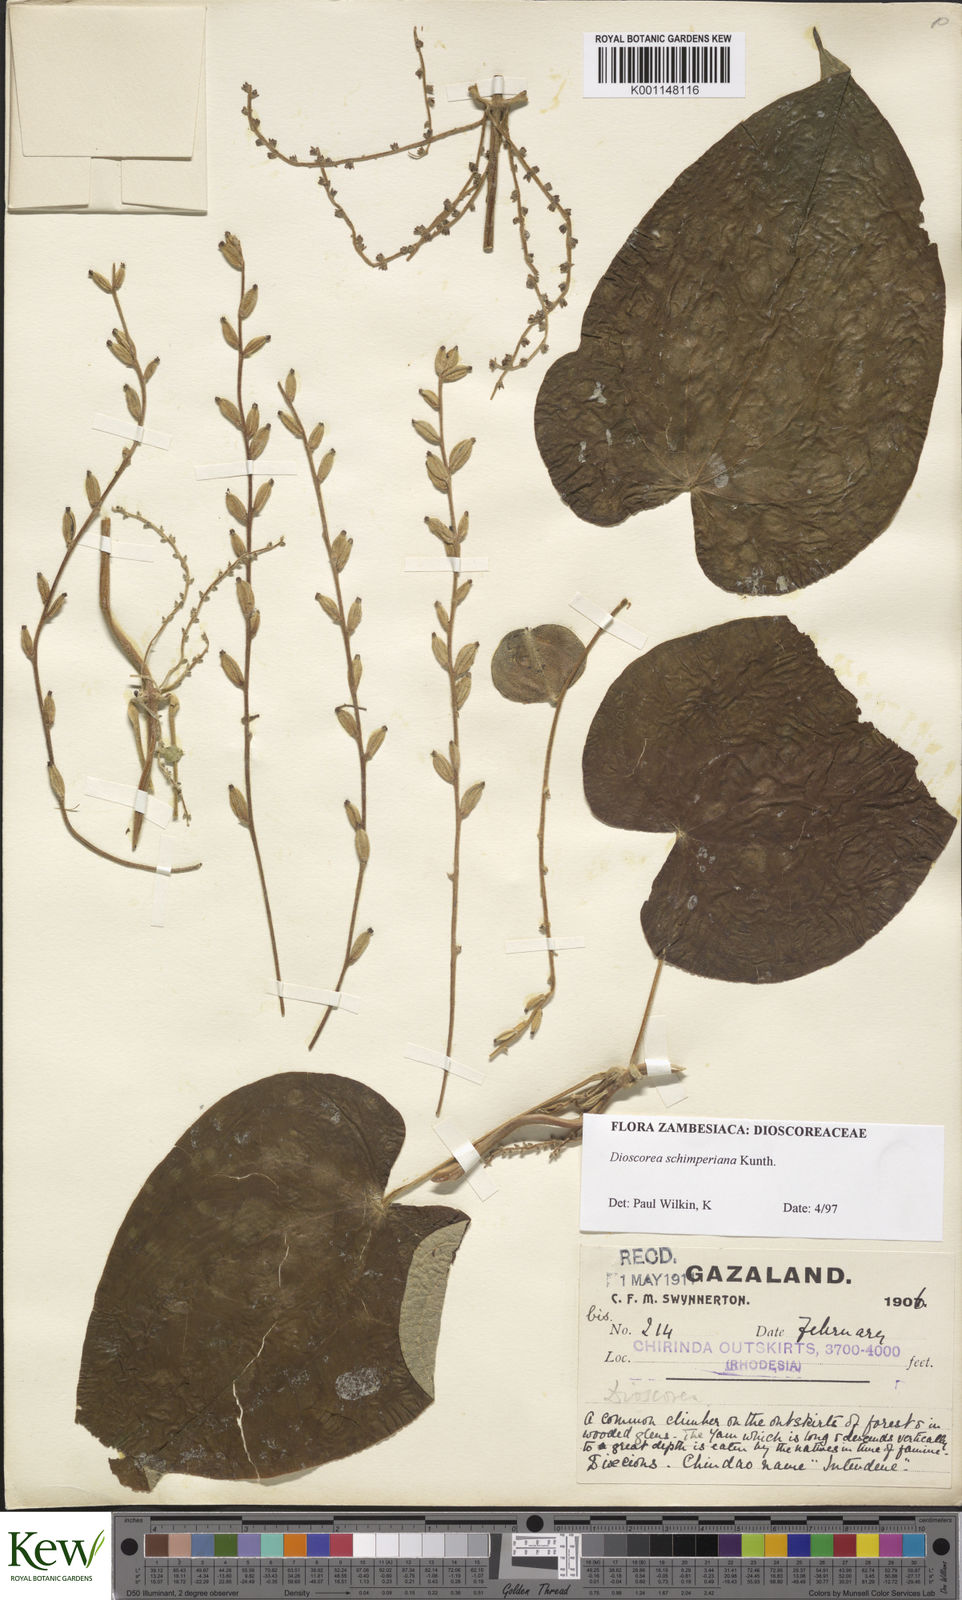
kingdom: Plantae
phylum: Tracheophyta
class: Liliopsida
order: Dioscoreales
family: Dioscoreaceae
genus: Dioscorea
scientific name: Dioscorea schimperiana
